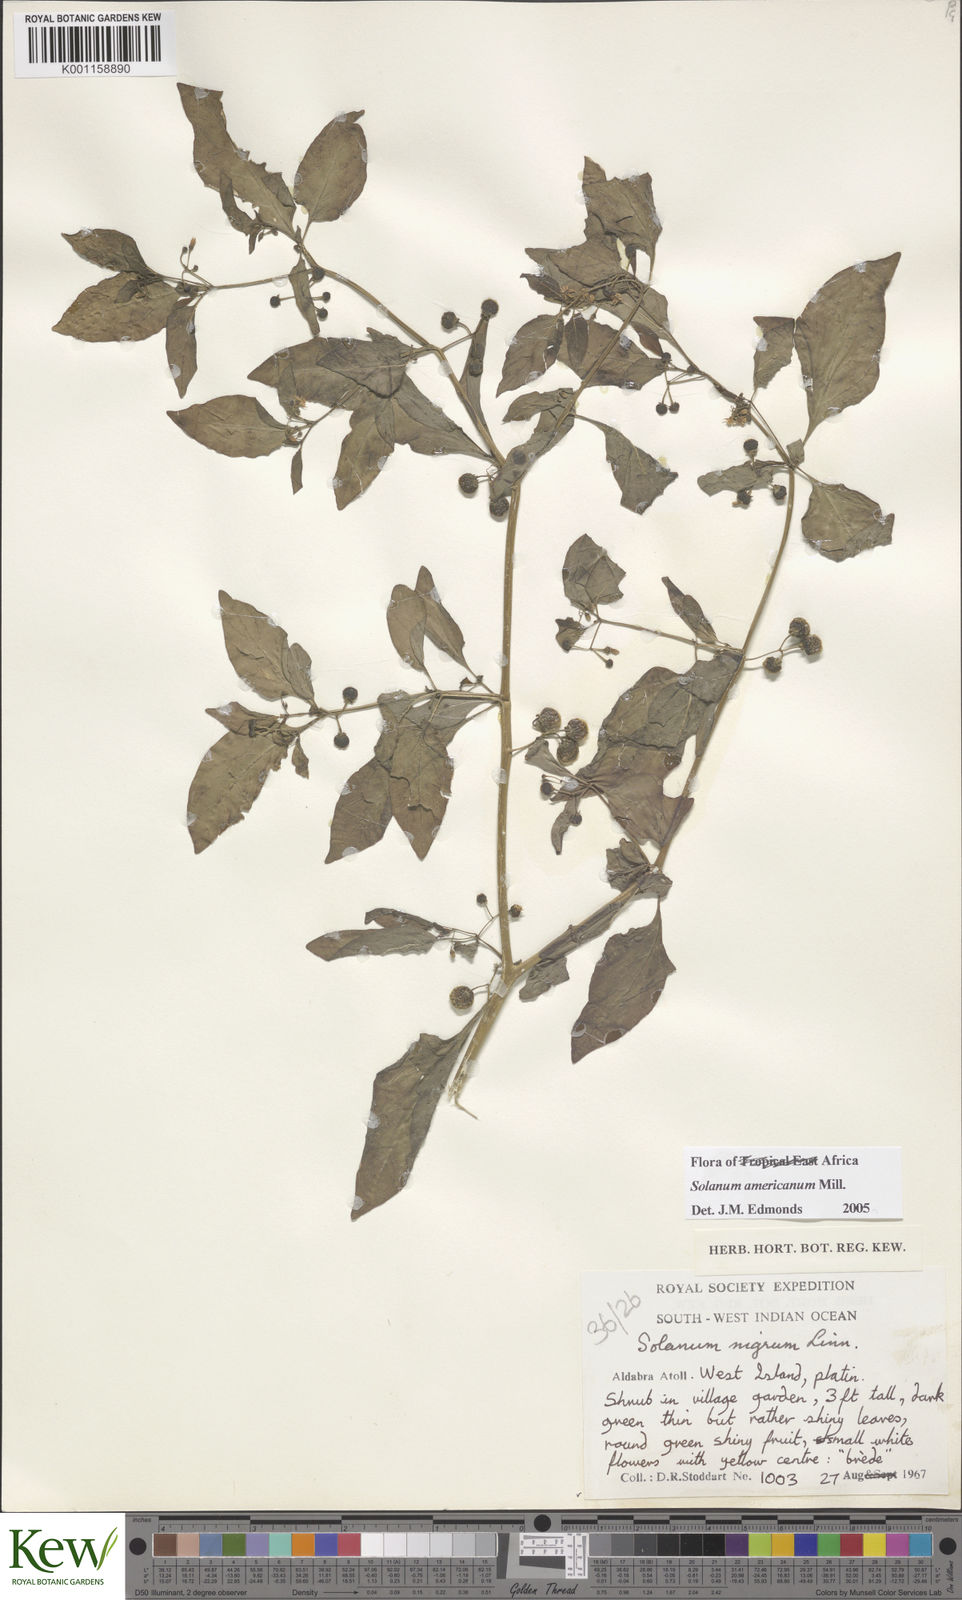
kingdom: Plantae
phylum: Tracheophyta
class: Magnoliopsida
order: Solanales
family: Solanaceae
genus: Solanum
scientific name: Solanum americanum
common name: American black nightshade
